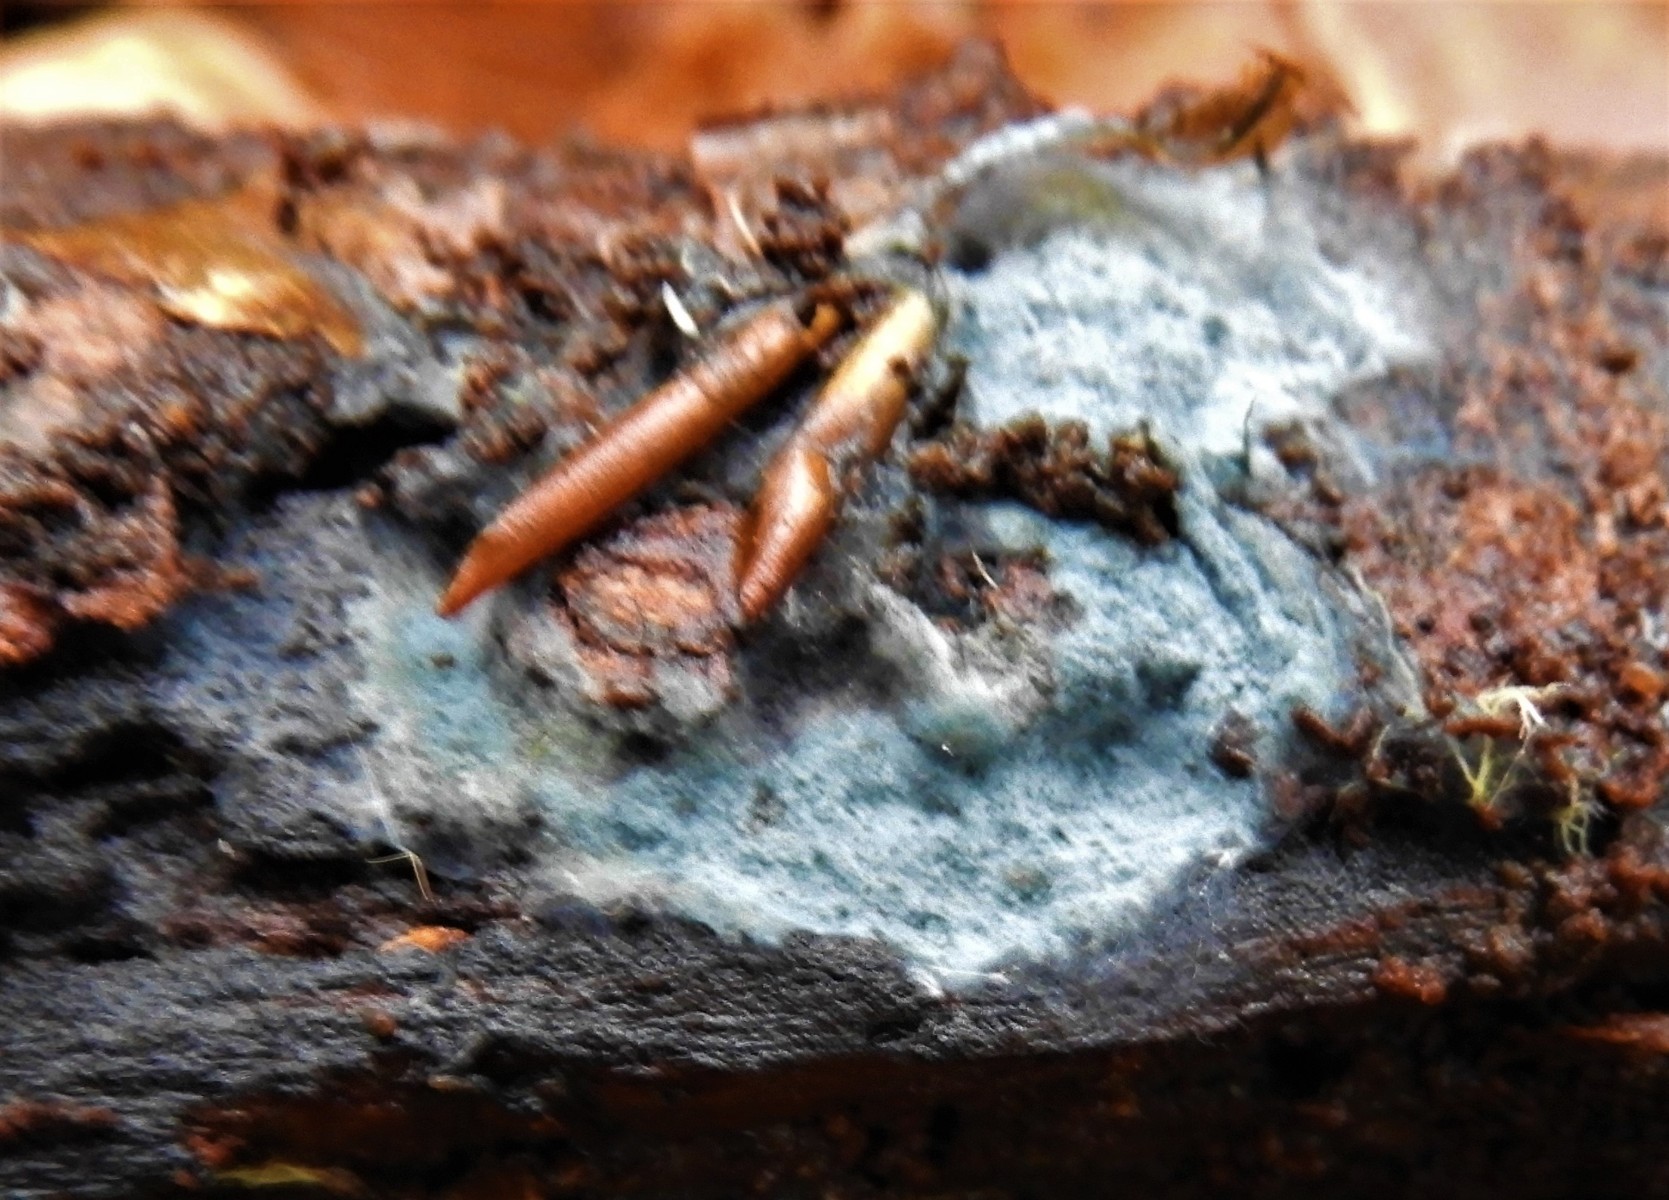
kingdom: Fungi
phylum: Basidiomycota
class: Agaricomycetes
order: Atheliales
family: Atheliaceae
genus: Byssocorticium
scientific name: Byssocorticium
